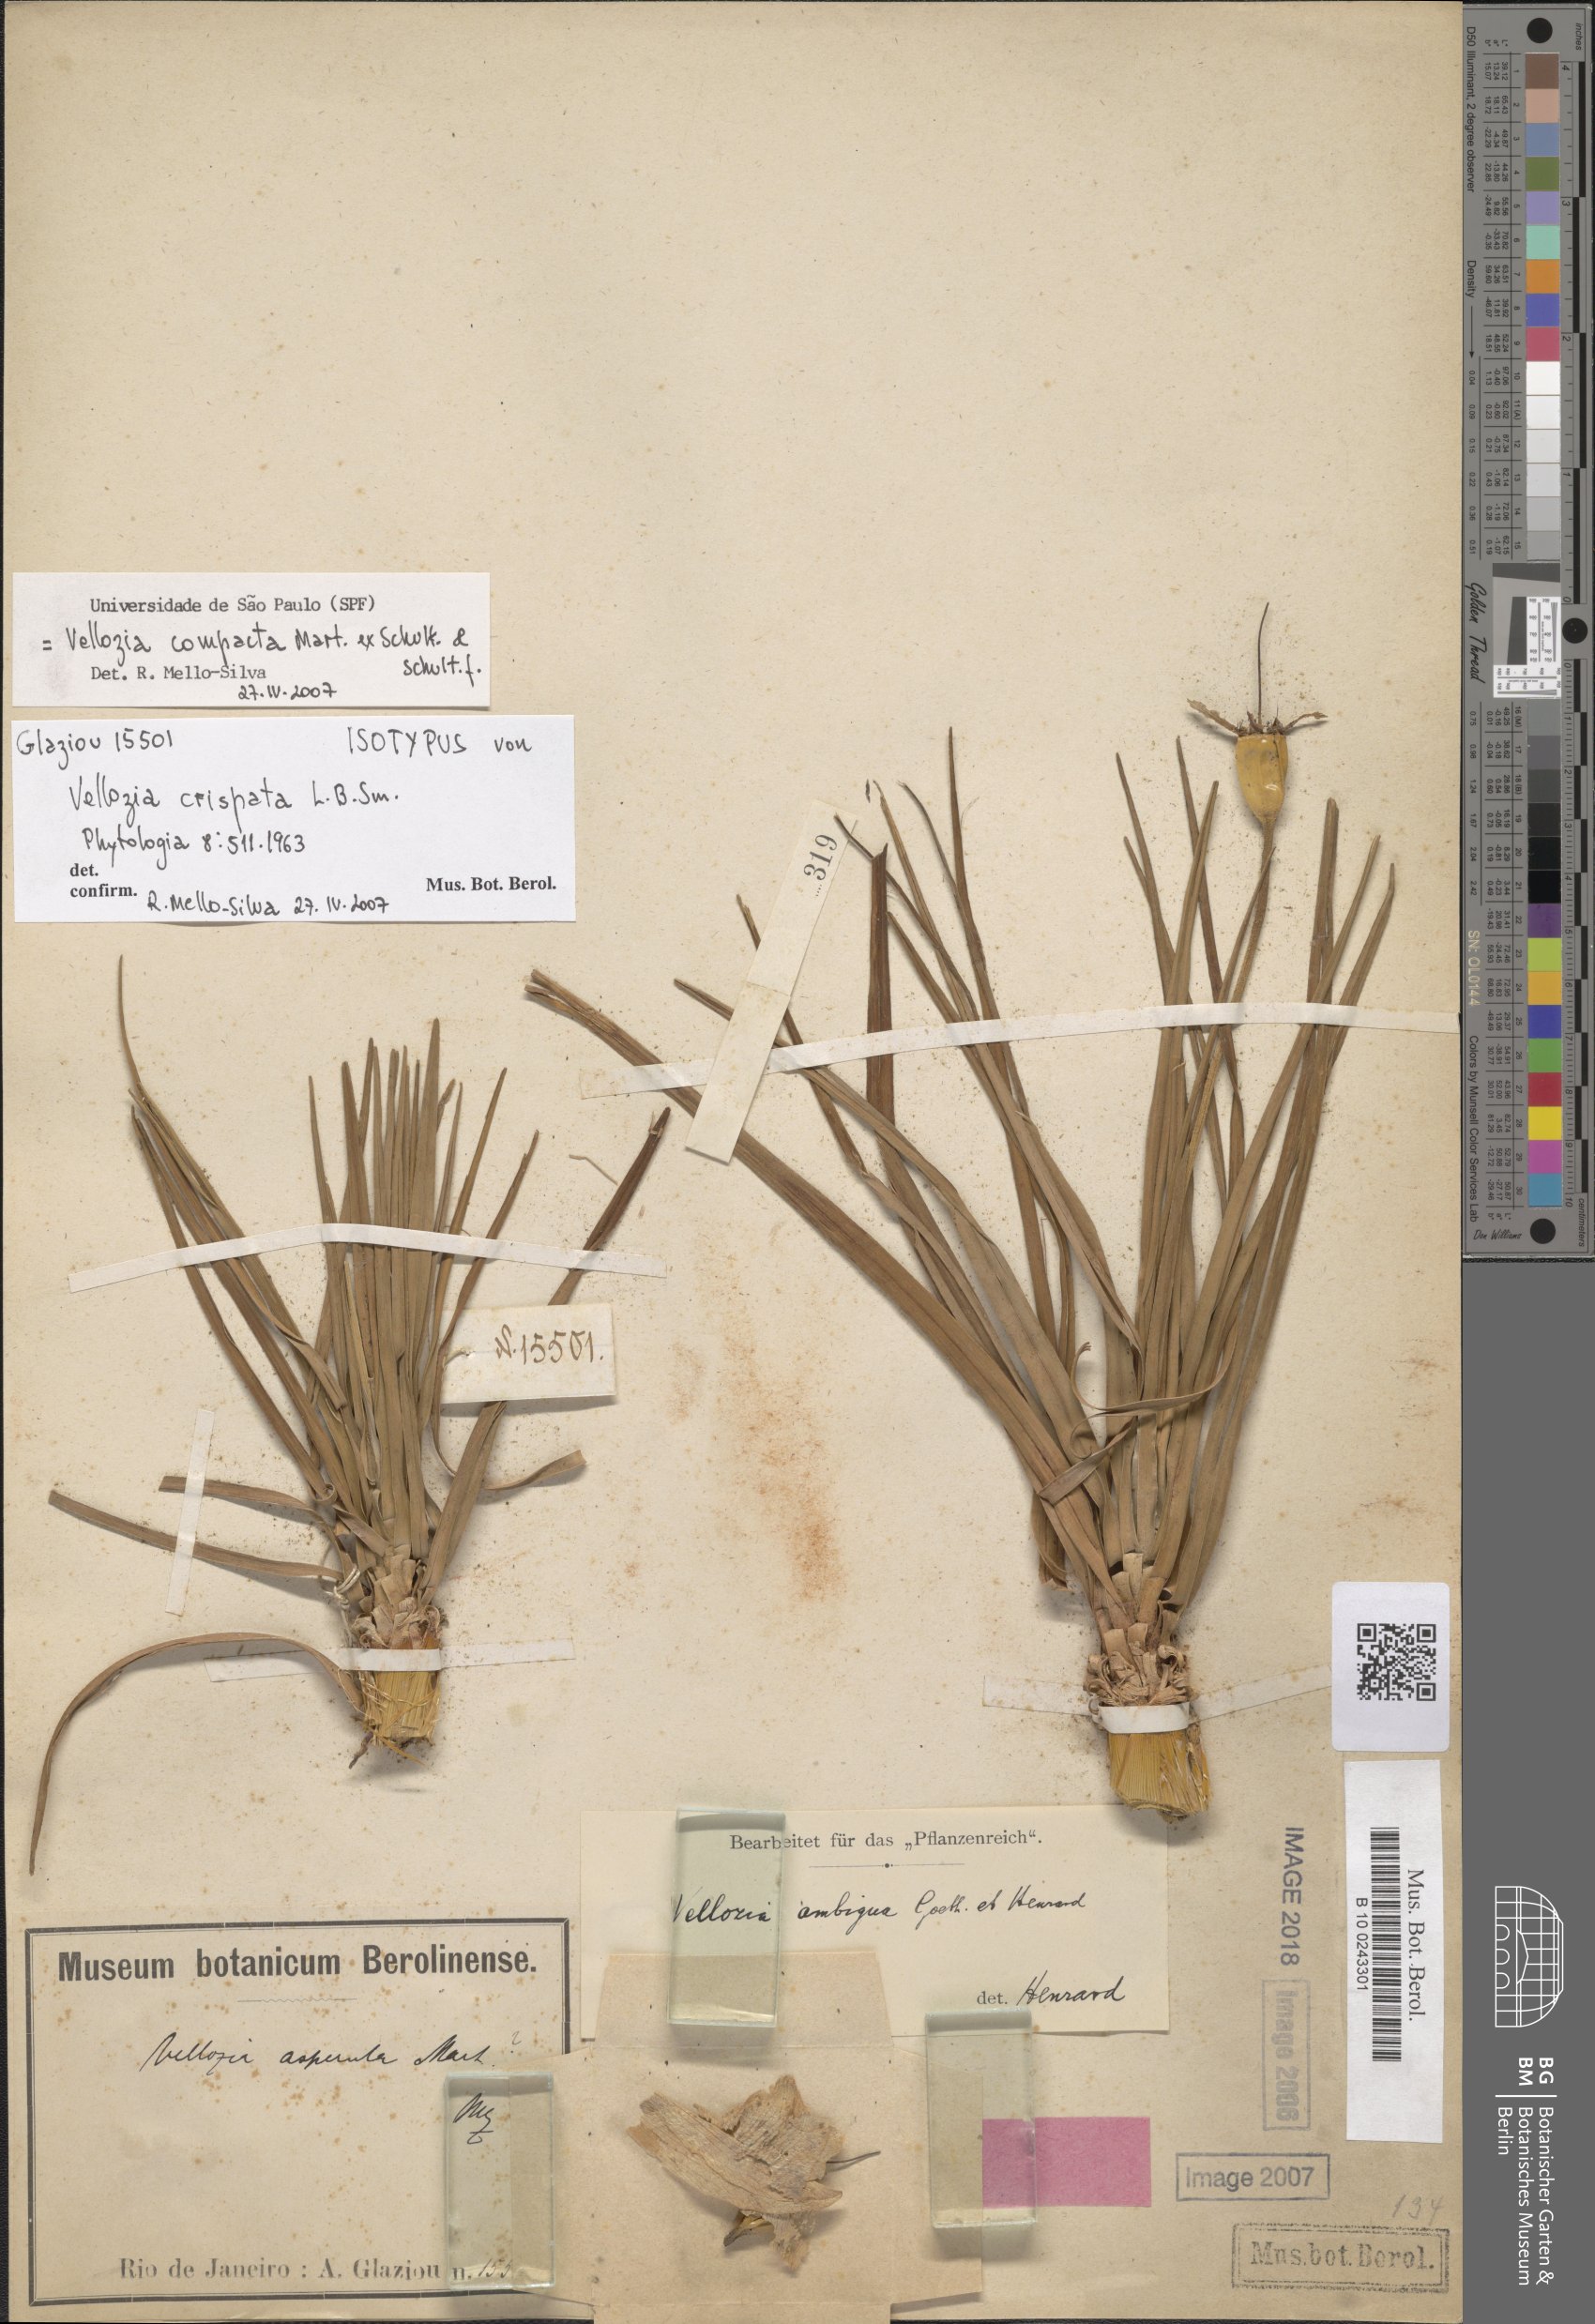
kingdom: Plantae
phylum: Tracheophyta
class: Liliopsida
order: Pandanales
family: Velloziaceae
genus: Vellozia
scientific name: Vellozia crispata
